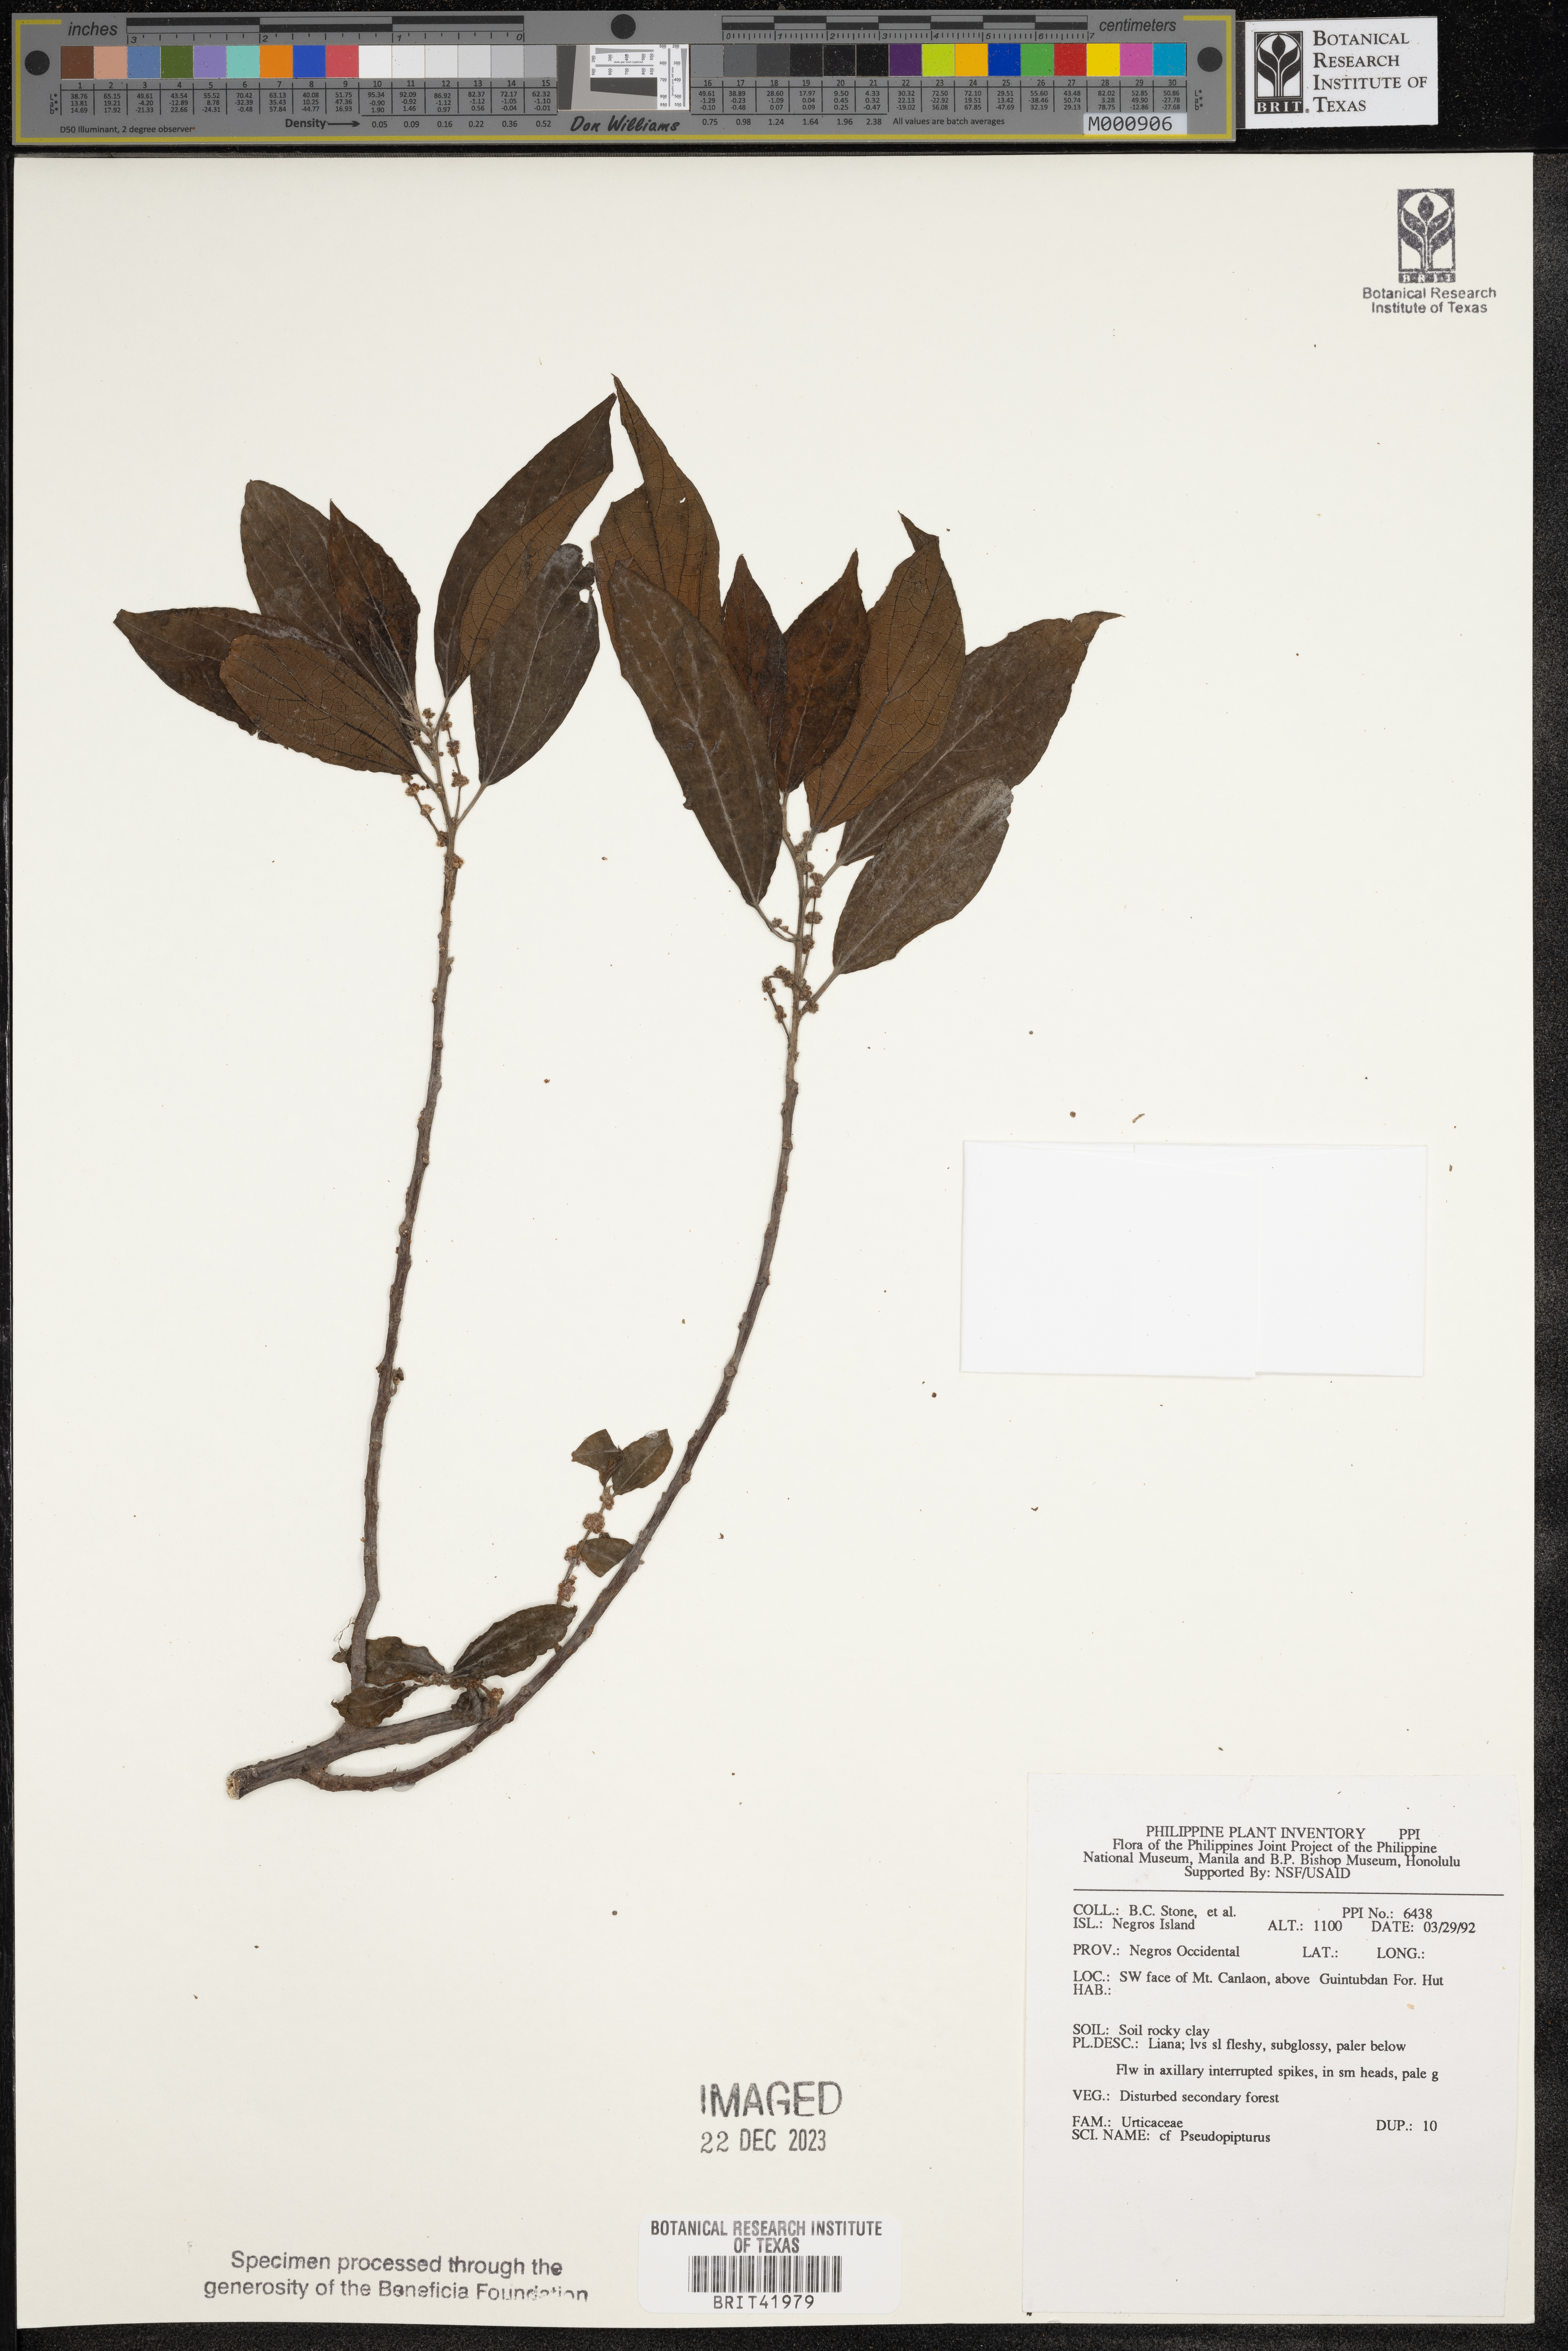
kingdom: Plantae
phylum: Tracheophyta
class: Magnoliopsida
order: Rosales
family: Urticaceae
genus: Nothocnide
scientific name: Nothocnide
